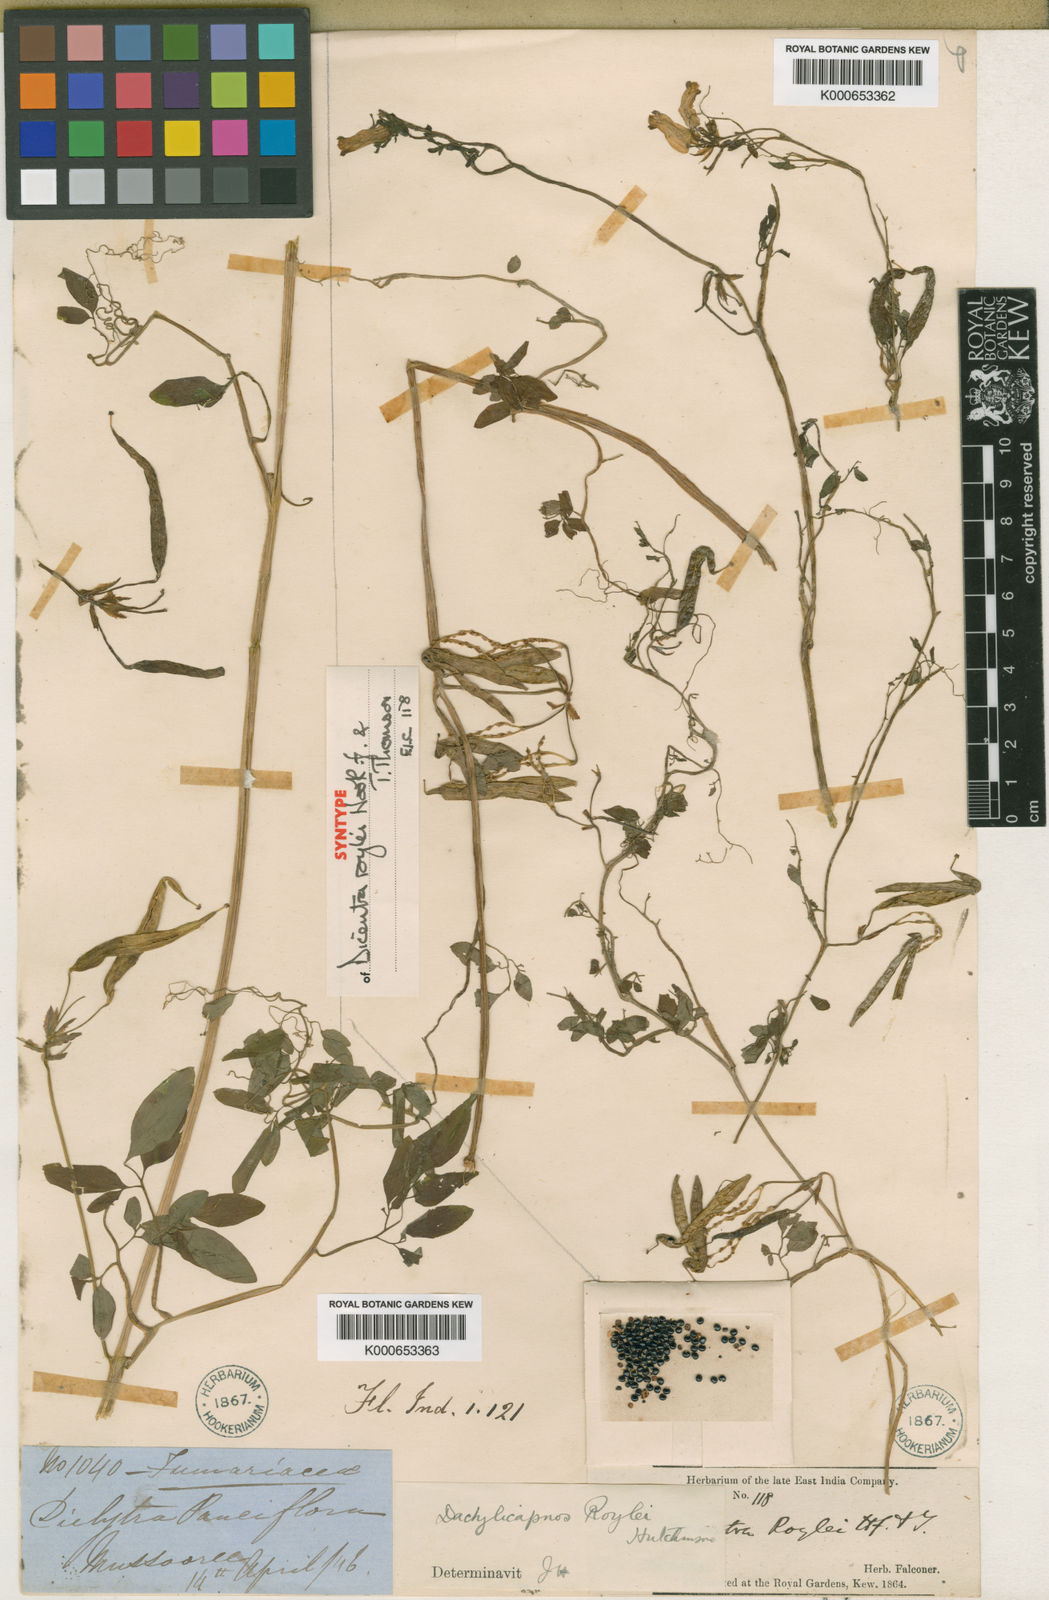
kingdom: Plantae
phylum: Tracheophyta
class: Magnoliopsida
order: Ranunculales
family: Papaveraceae
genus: Dactylicapnos
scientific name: Dactylicapnos roylei
